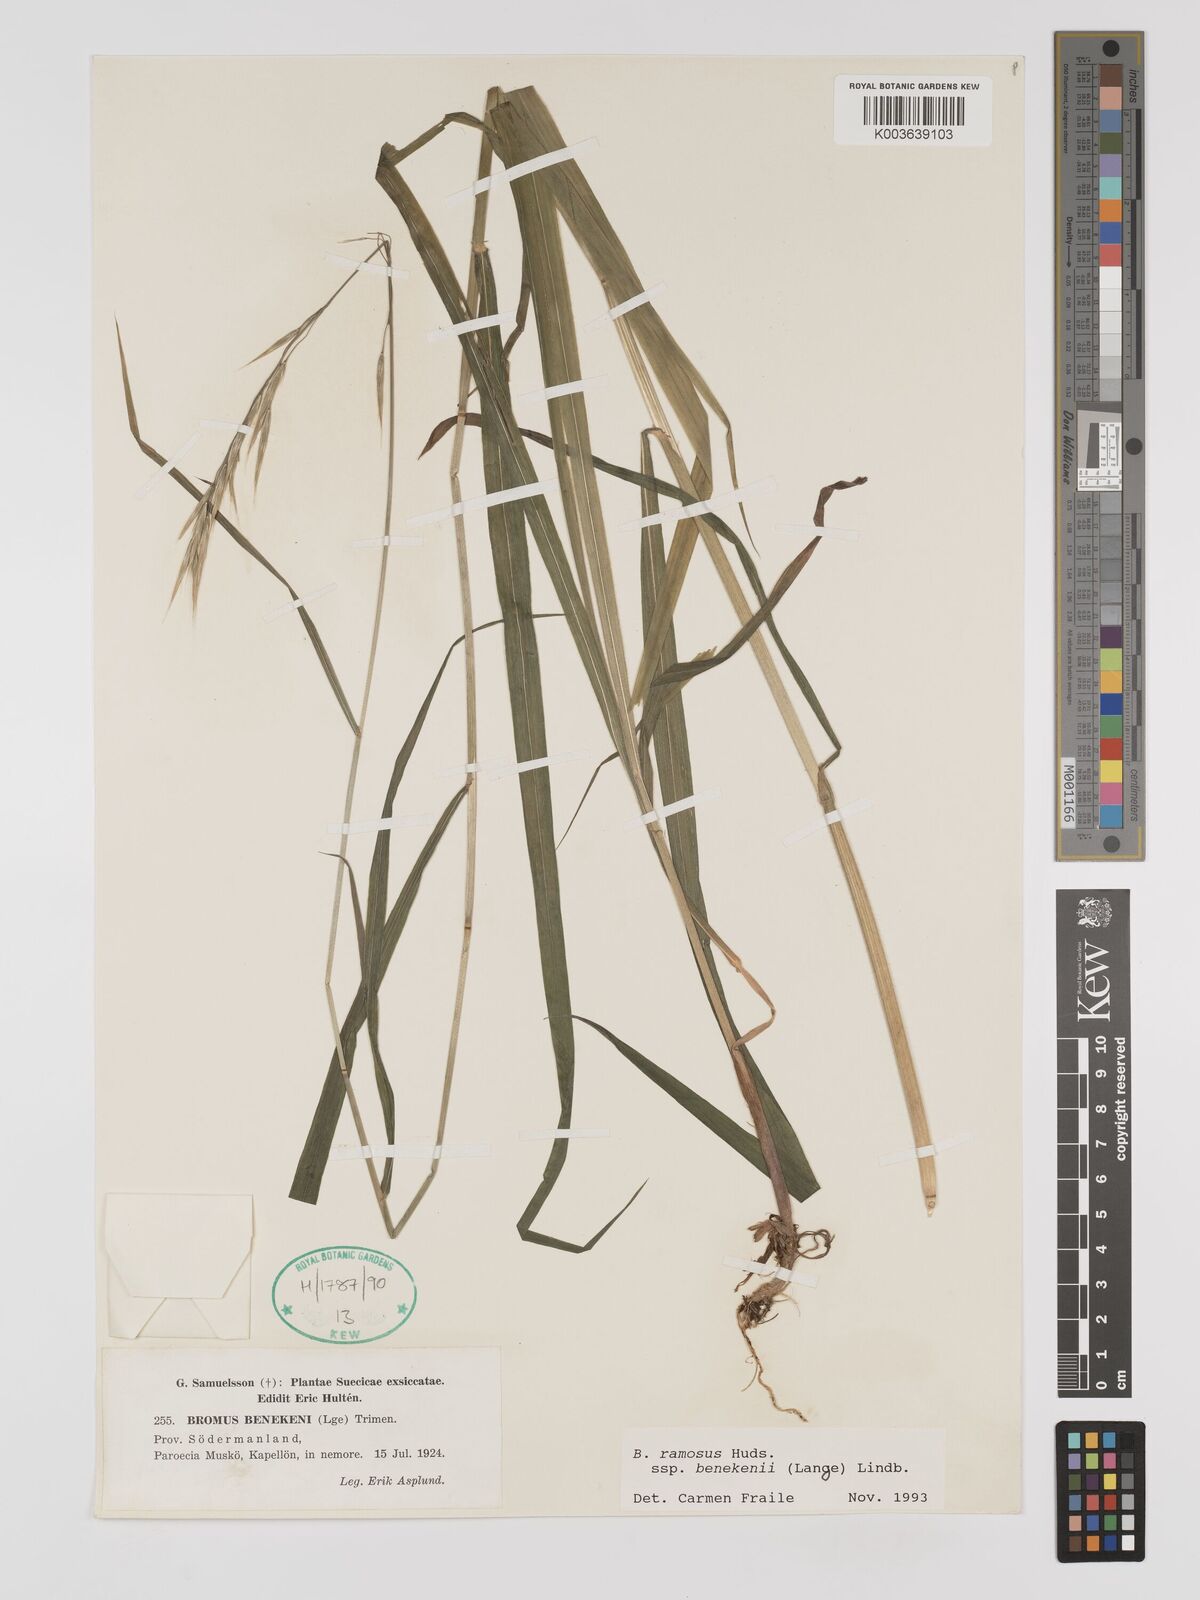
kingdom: Plantae
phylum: Tracheophyta
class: Liliopsida
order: Poales
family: Poaceae
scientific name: Poaceae
